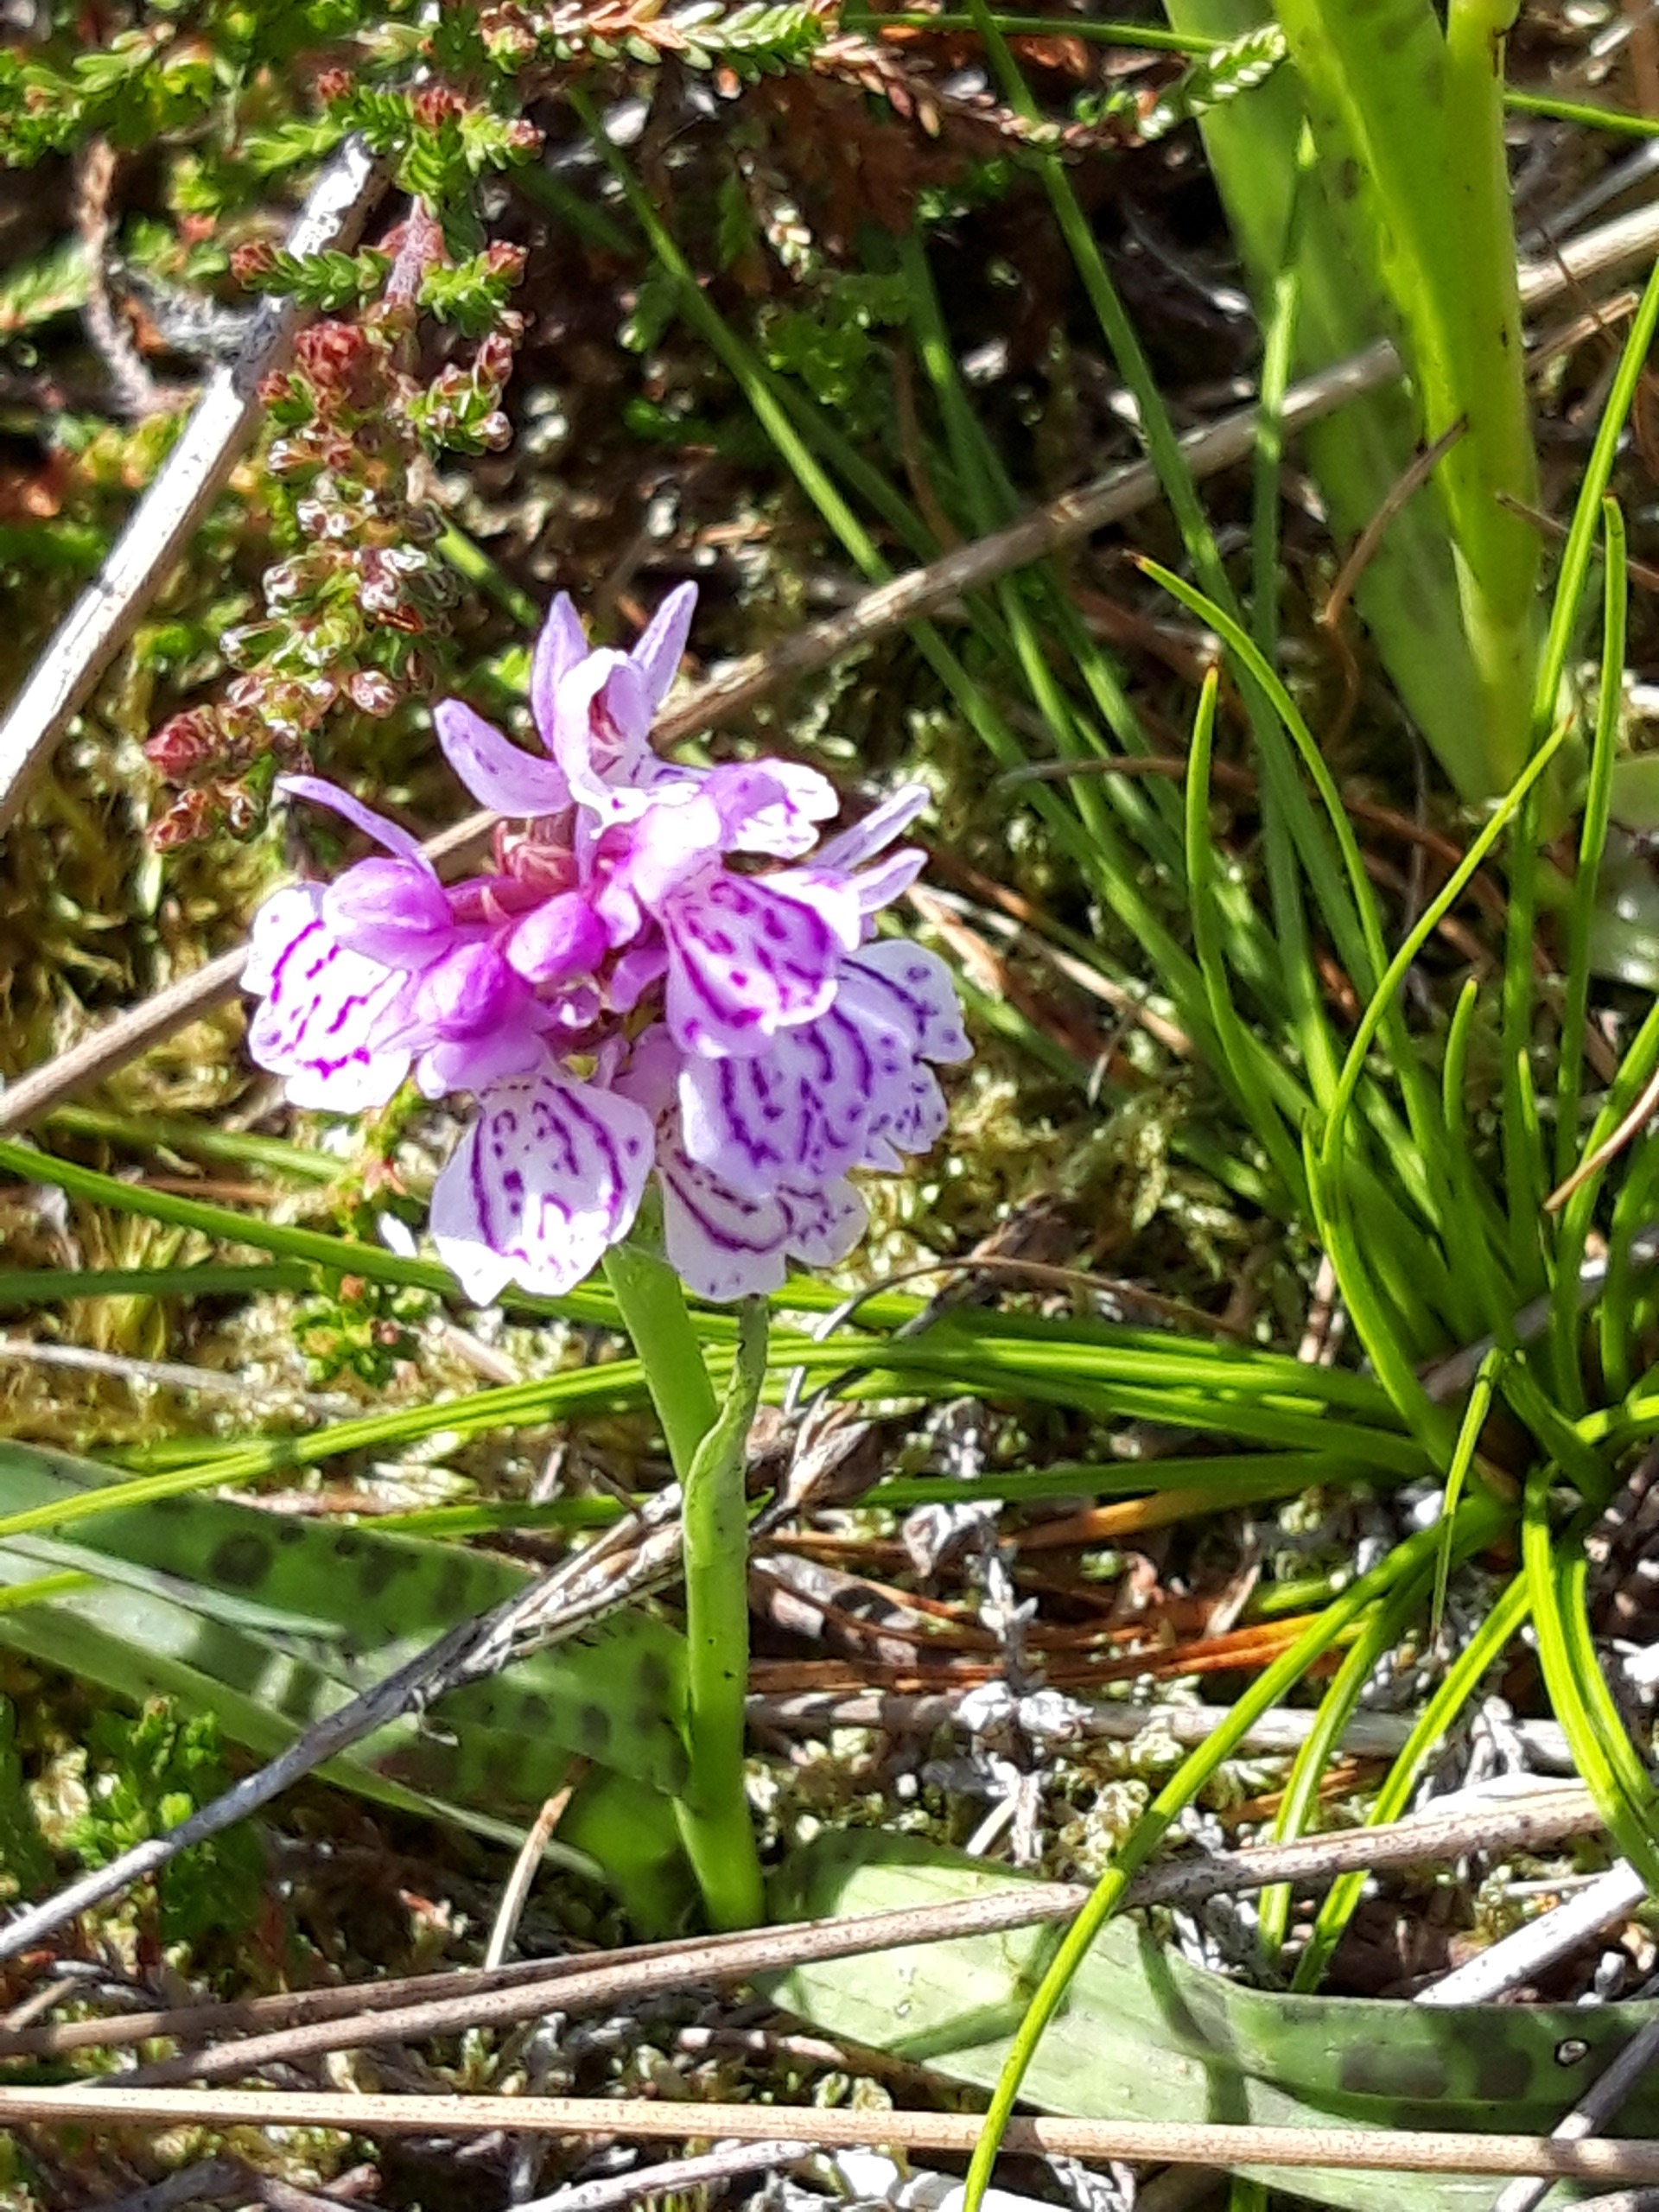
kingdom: Plantae
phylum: Tracheophyta
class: Liliopsida
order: Asparagales
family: Orchidaceae
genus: Dactylorhiza
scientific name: Dactylorhiza maculata
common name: Plettet gøgeurt
